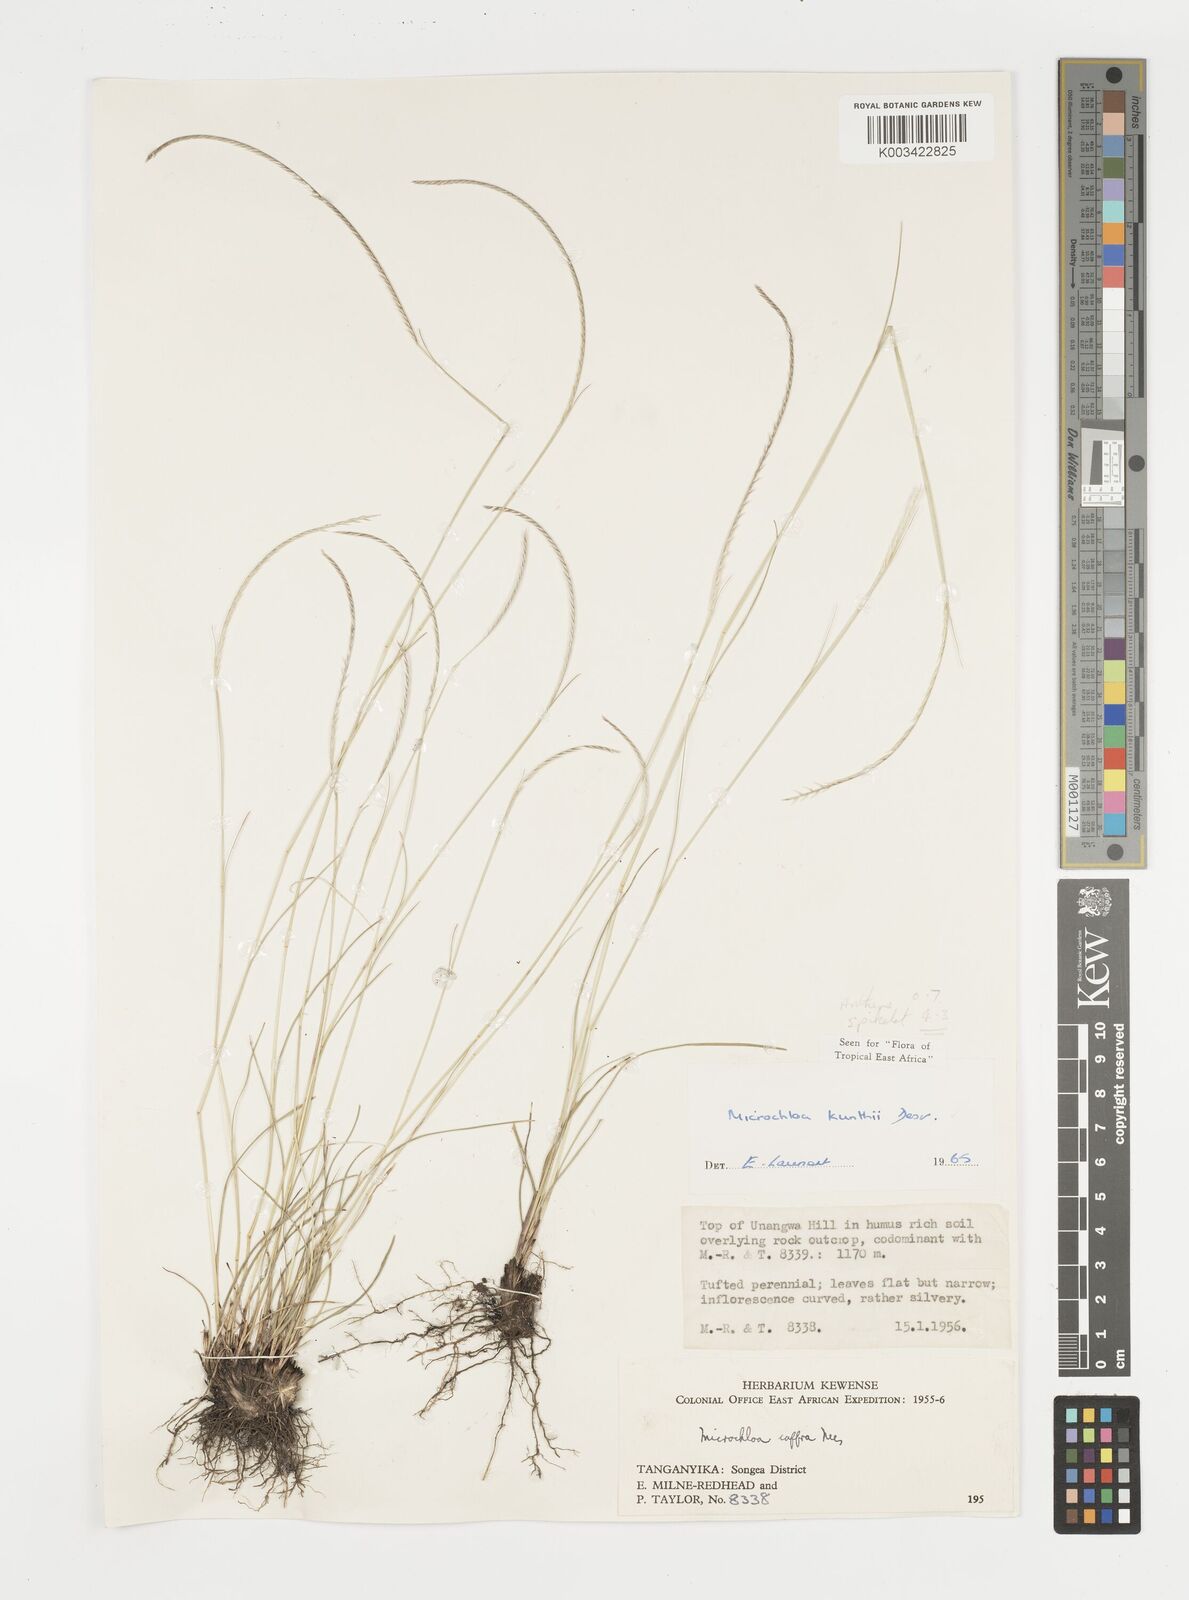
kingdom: Plantae
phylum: Tracheophyta
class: Liliopsida
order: Poales
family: Poaceae
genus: Microchloa
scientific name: Microchloa kunthii
